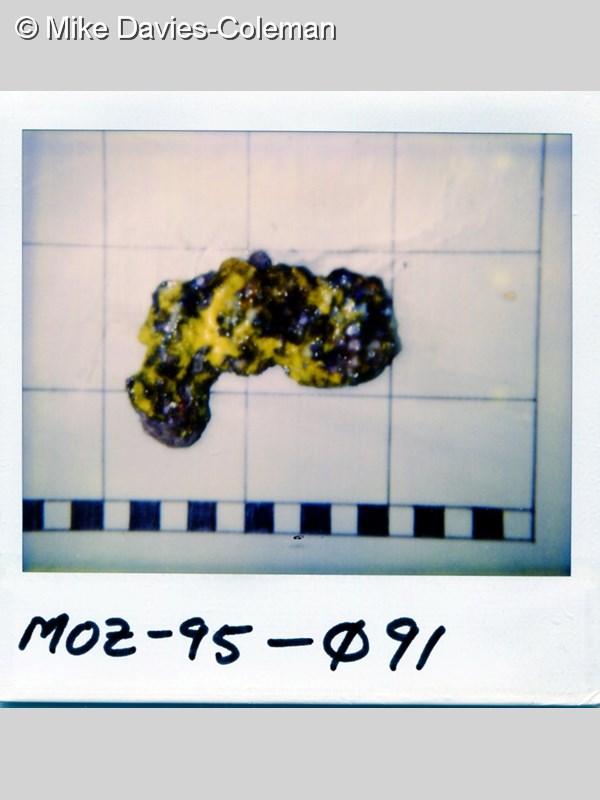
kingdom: Animalia
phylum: Porifera
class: Demospongiae
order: Verongiida
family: Pseudoceratinidae
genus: Pseudoceratina
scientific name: Pseudoceratina
